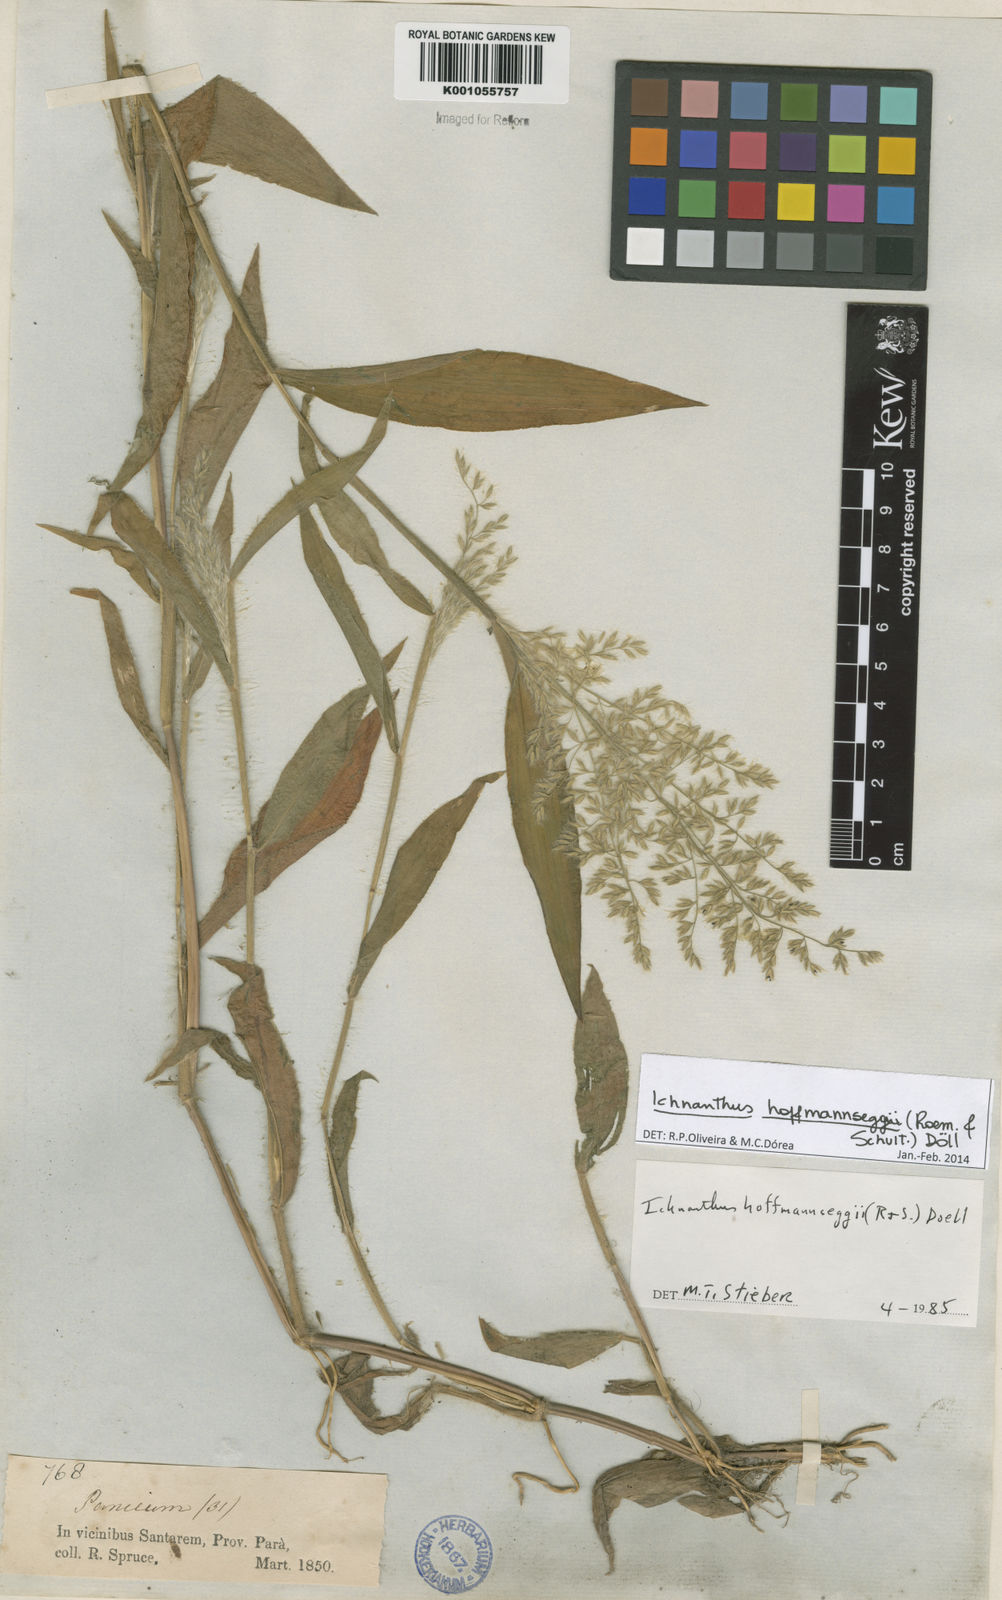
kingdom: Plantae
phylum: Tracheophyta
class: Liliopsida
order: Poales
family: Poaceae
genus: Ichnanthus
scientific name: Ichnanthus
